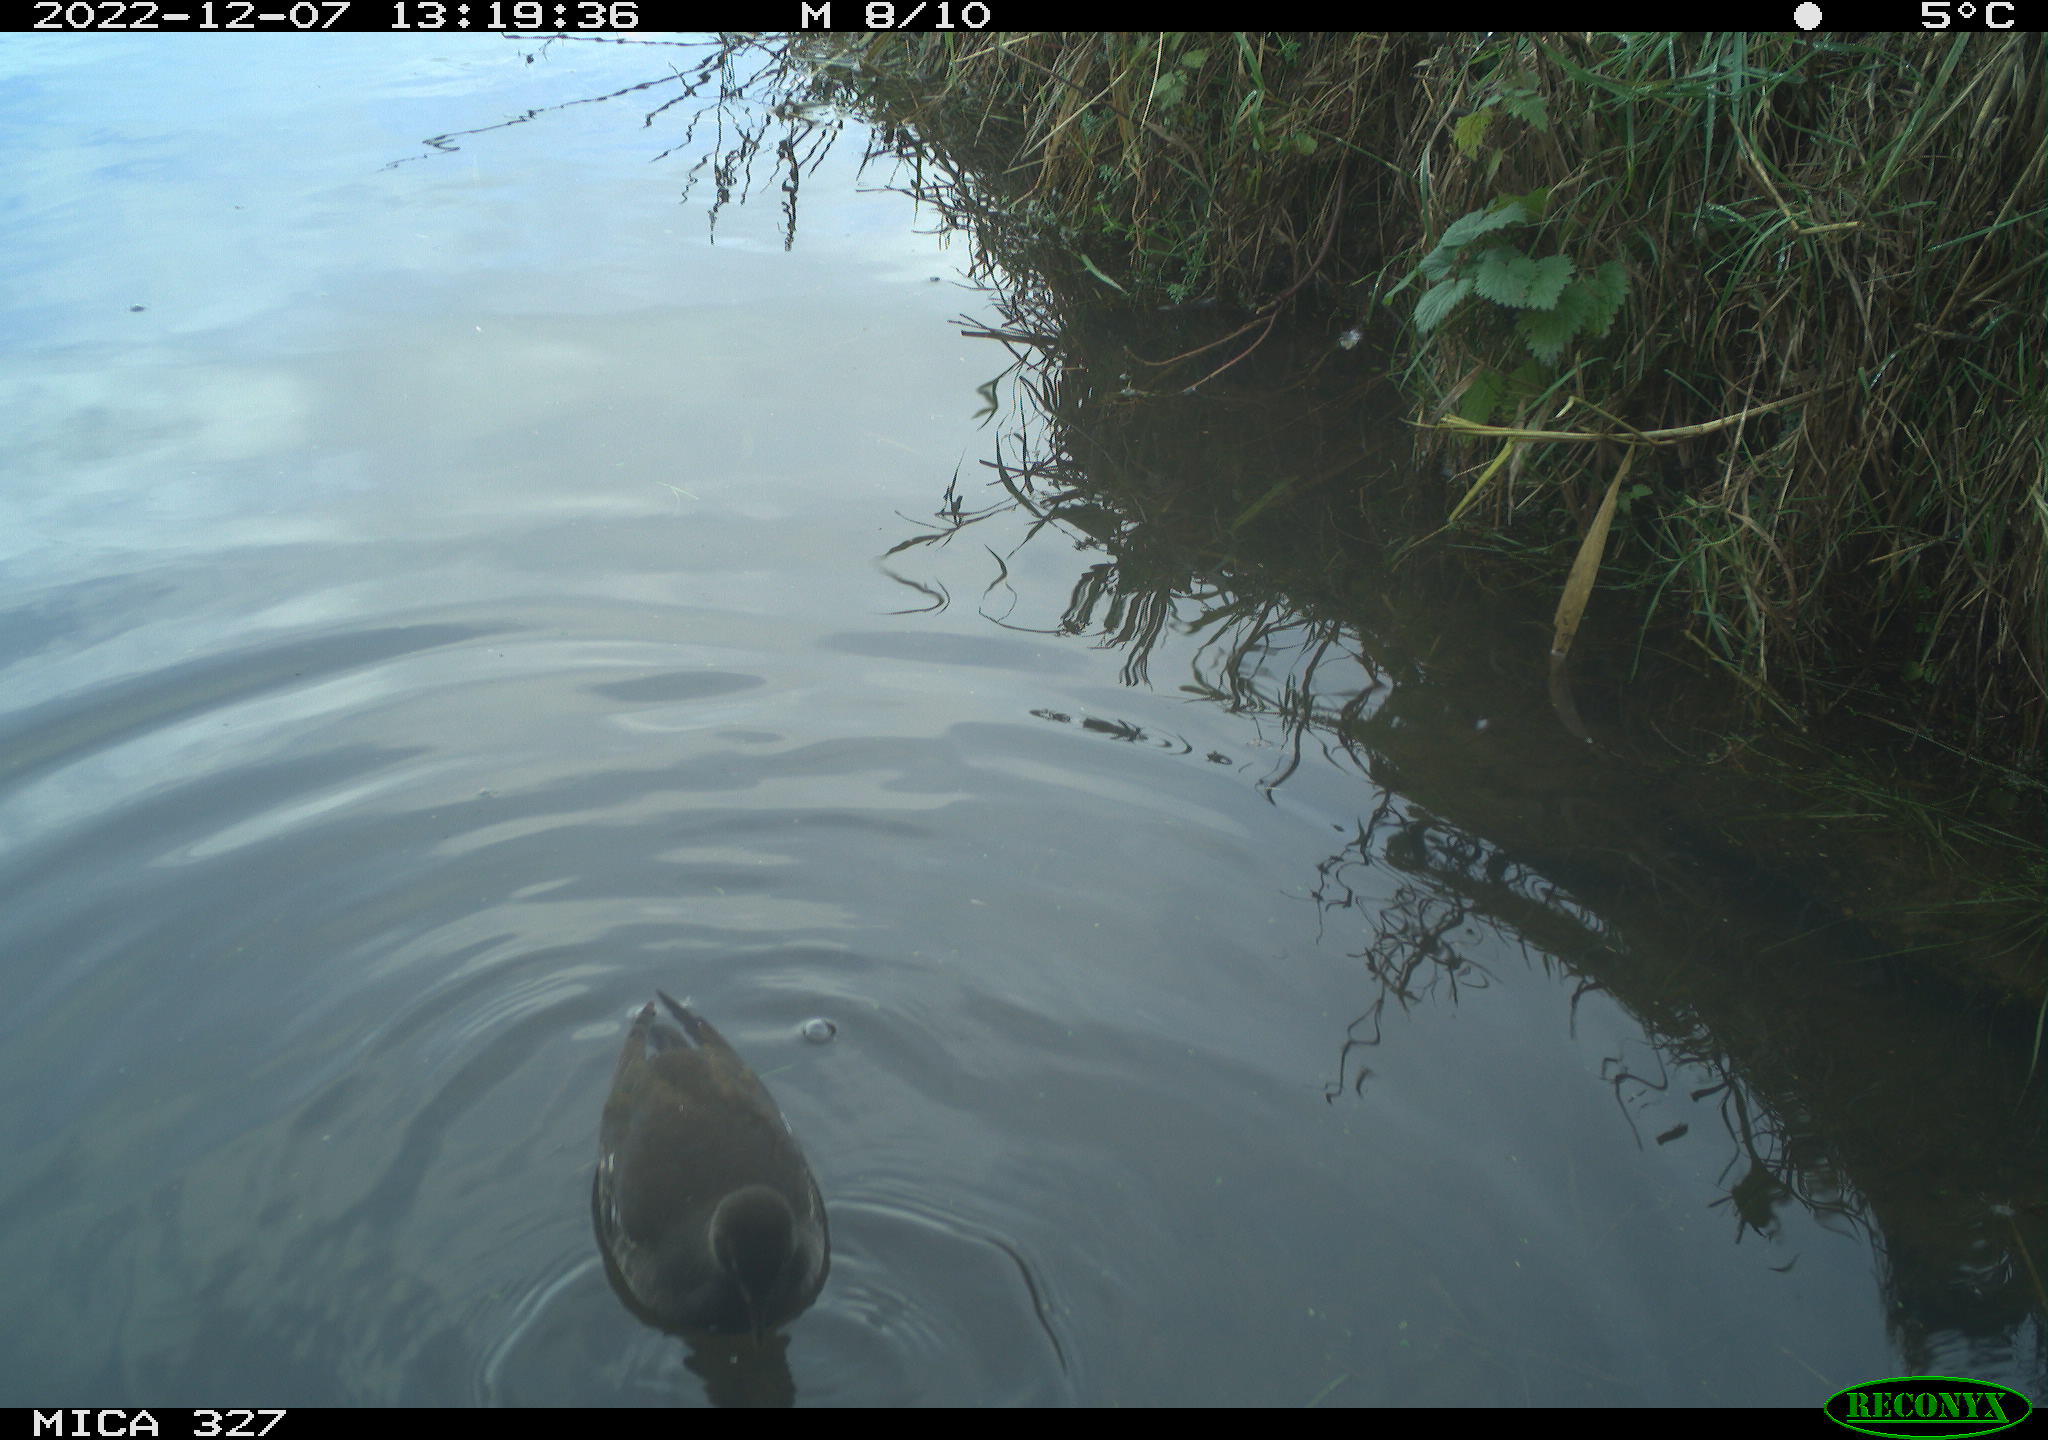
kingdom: Animalia
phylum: Chordata
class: Aves
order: Gruiformes
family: Rallidae
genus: Gallinula
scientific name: Gallinula chloropus
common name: Common moorhen
